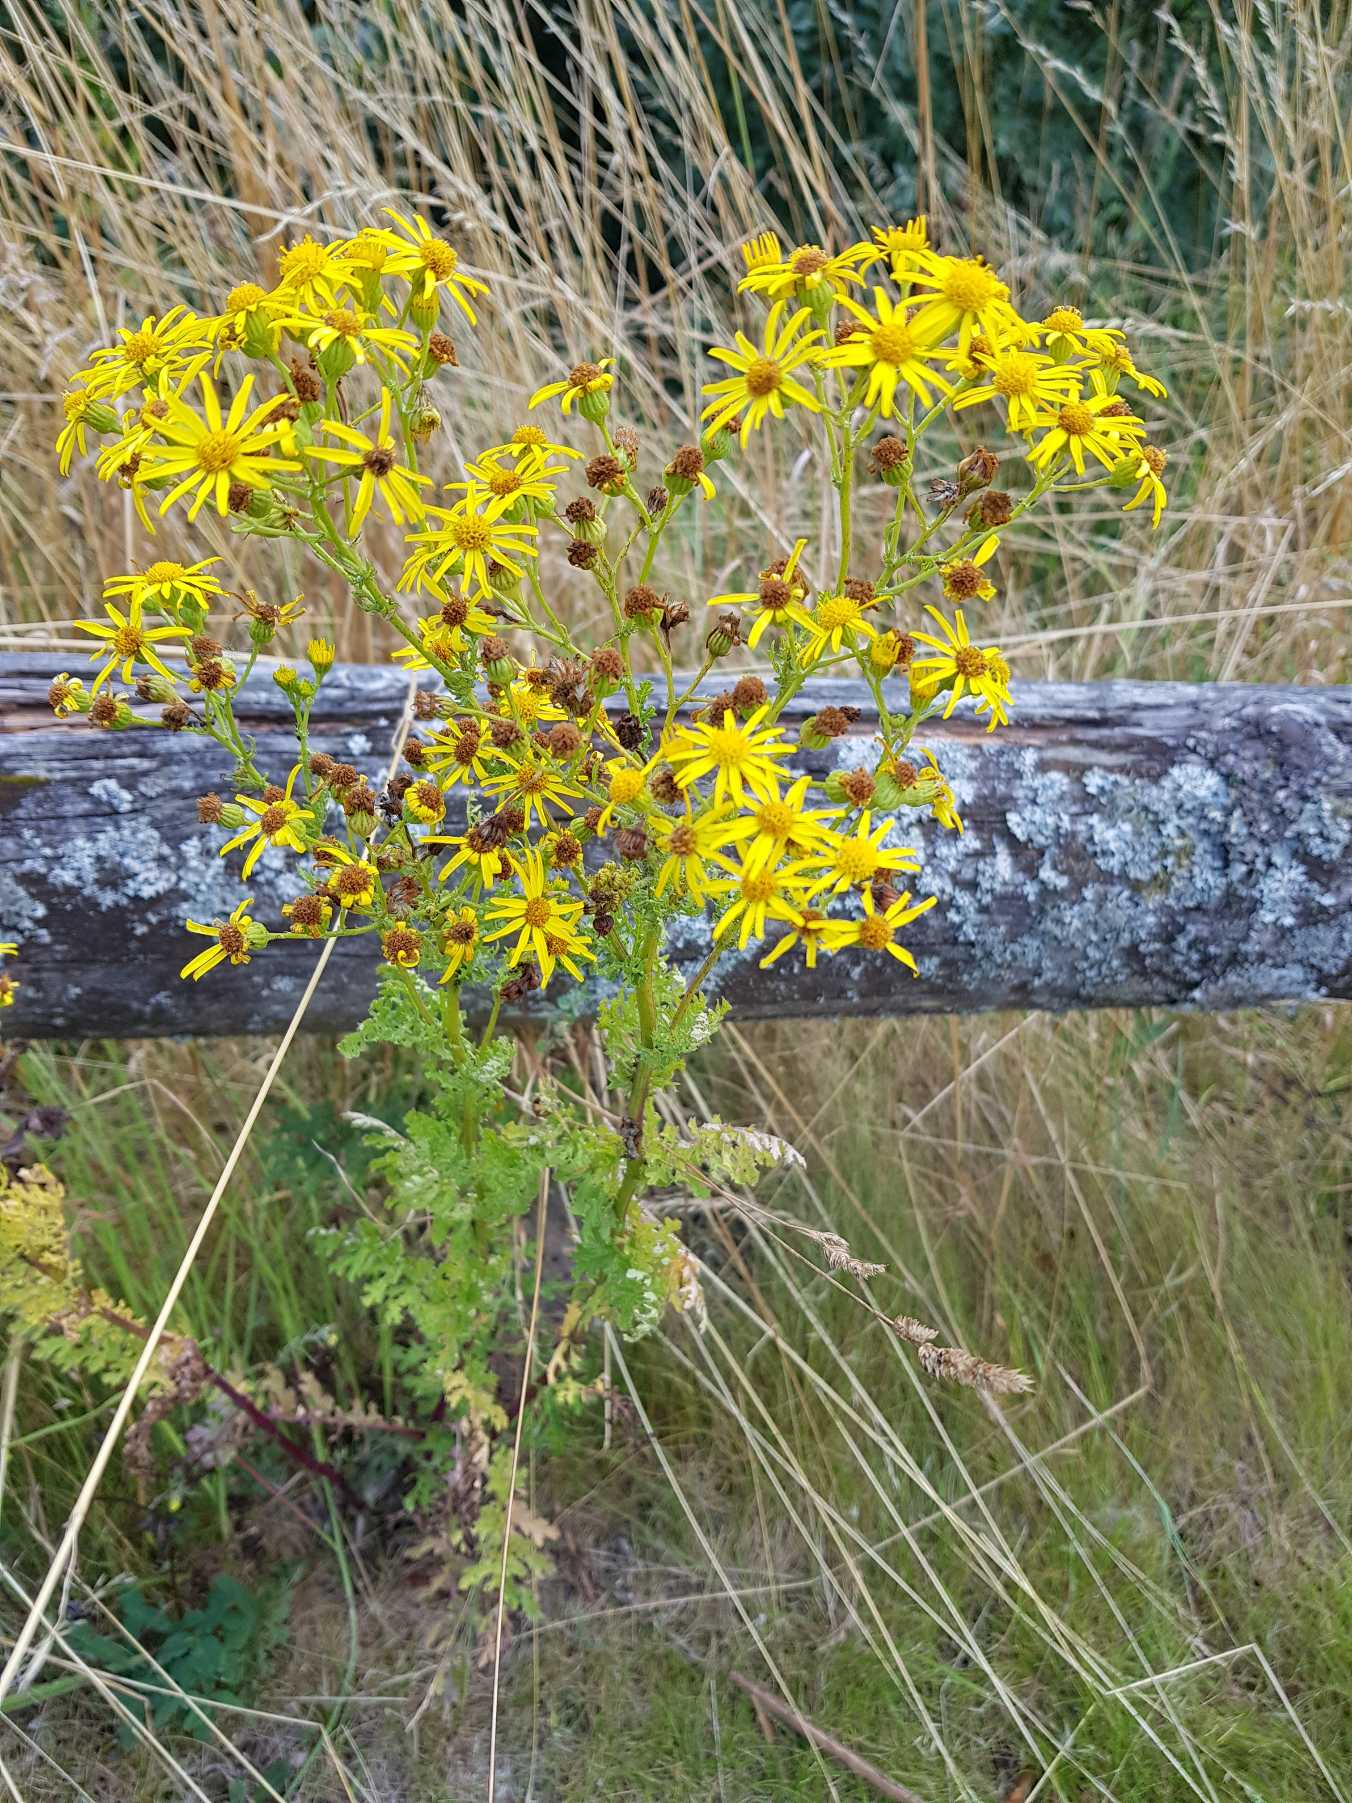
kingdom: Plantae
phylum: Tracheophyta
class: Magnoliopsida
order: Asterales
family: Asteraceae
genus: Jacobaea
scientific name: Jacobaea vulgaris
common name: Eng-brandbæger
